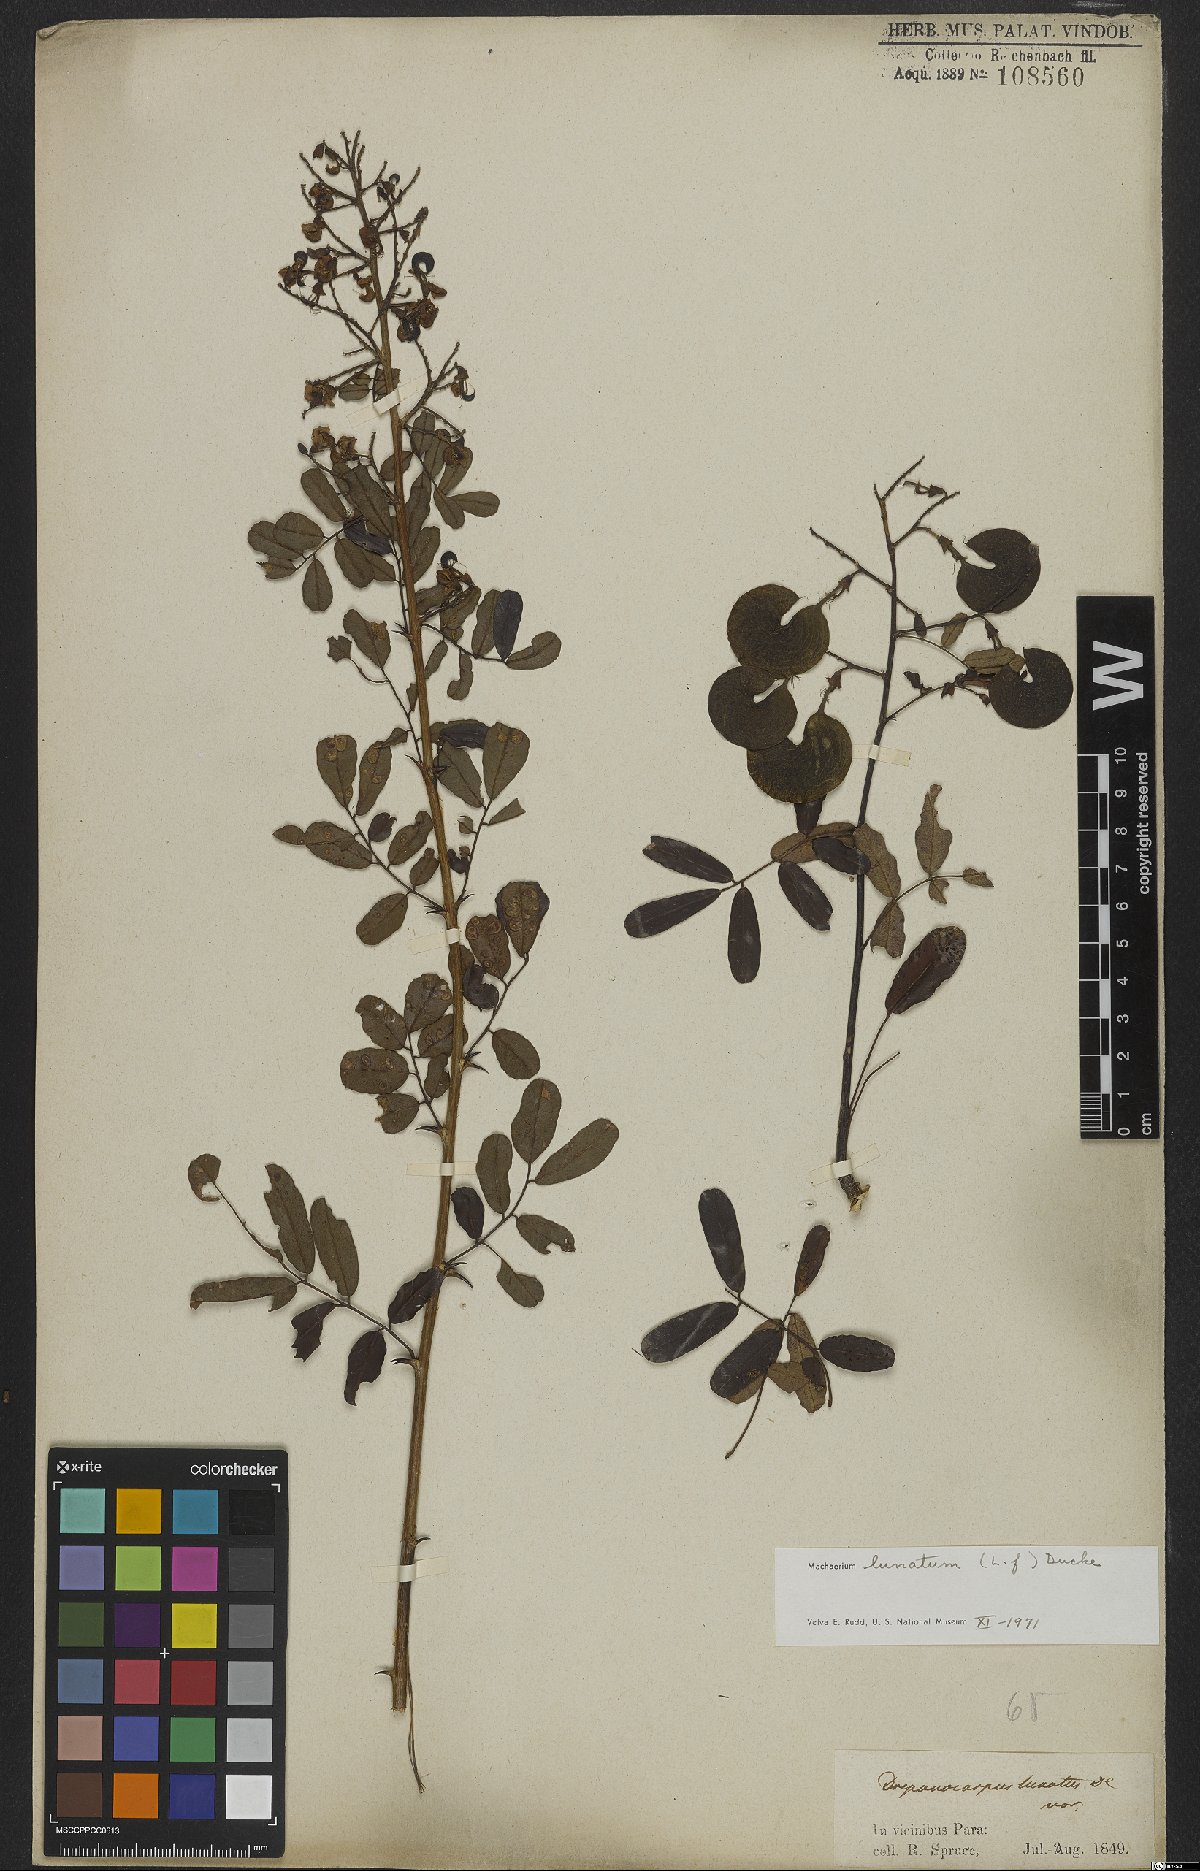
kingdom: Plantae
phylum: Tracheophyta
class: Magnoliopsida
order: Fabales
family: Fabaceae
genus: Machaerium
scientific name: Machaerium lunatum
